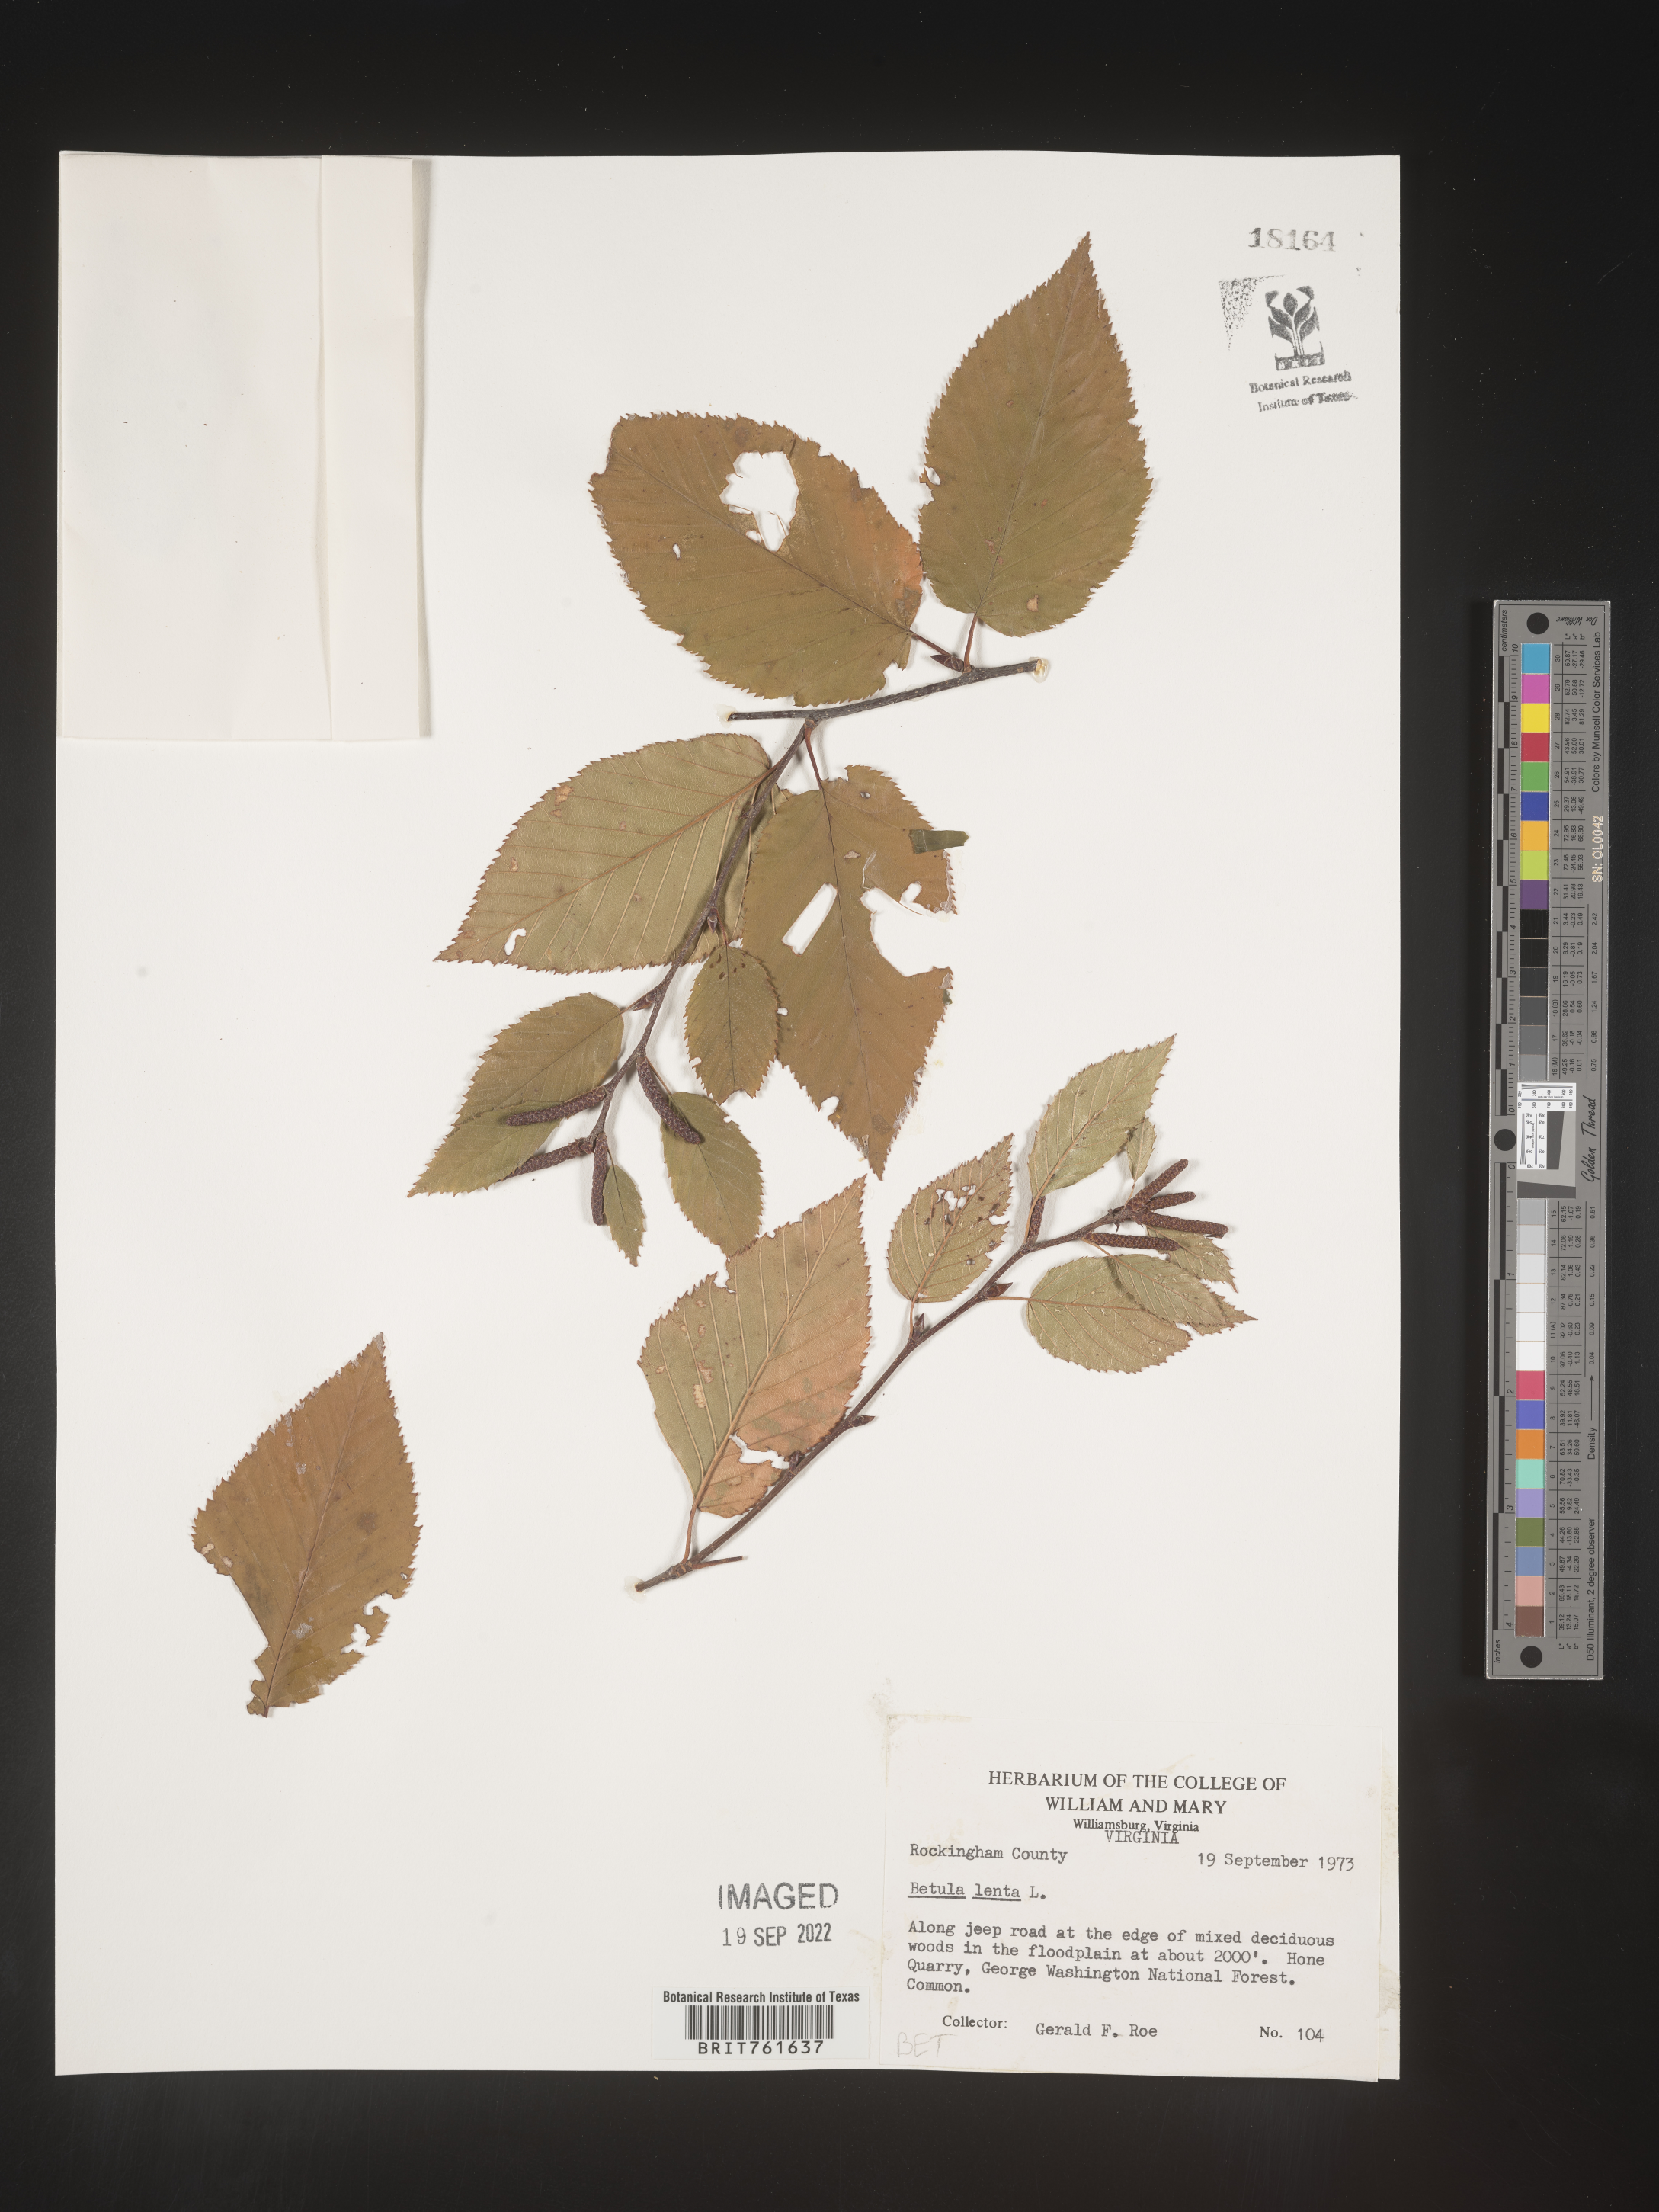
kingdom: Plantae
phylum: Tracheophyta
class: Magnoliopsida
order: Fagales
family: Betulaceae
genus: Betula
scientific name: Betula lenta
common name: Black birch
